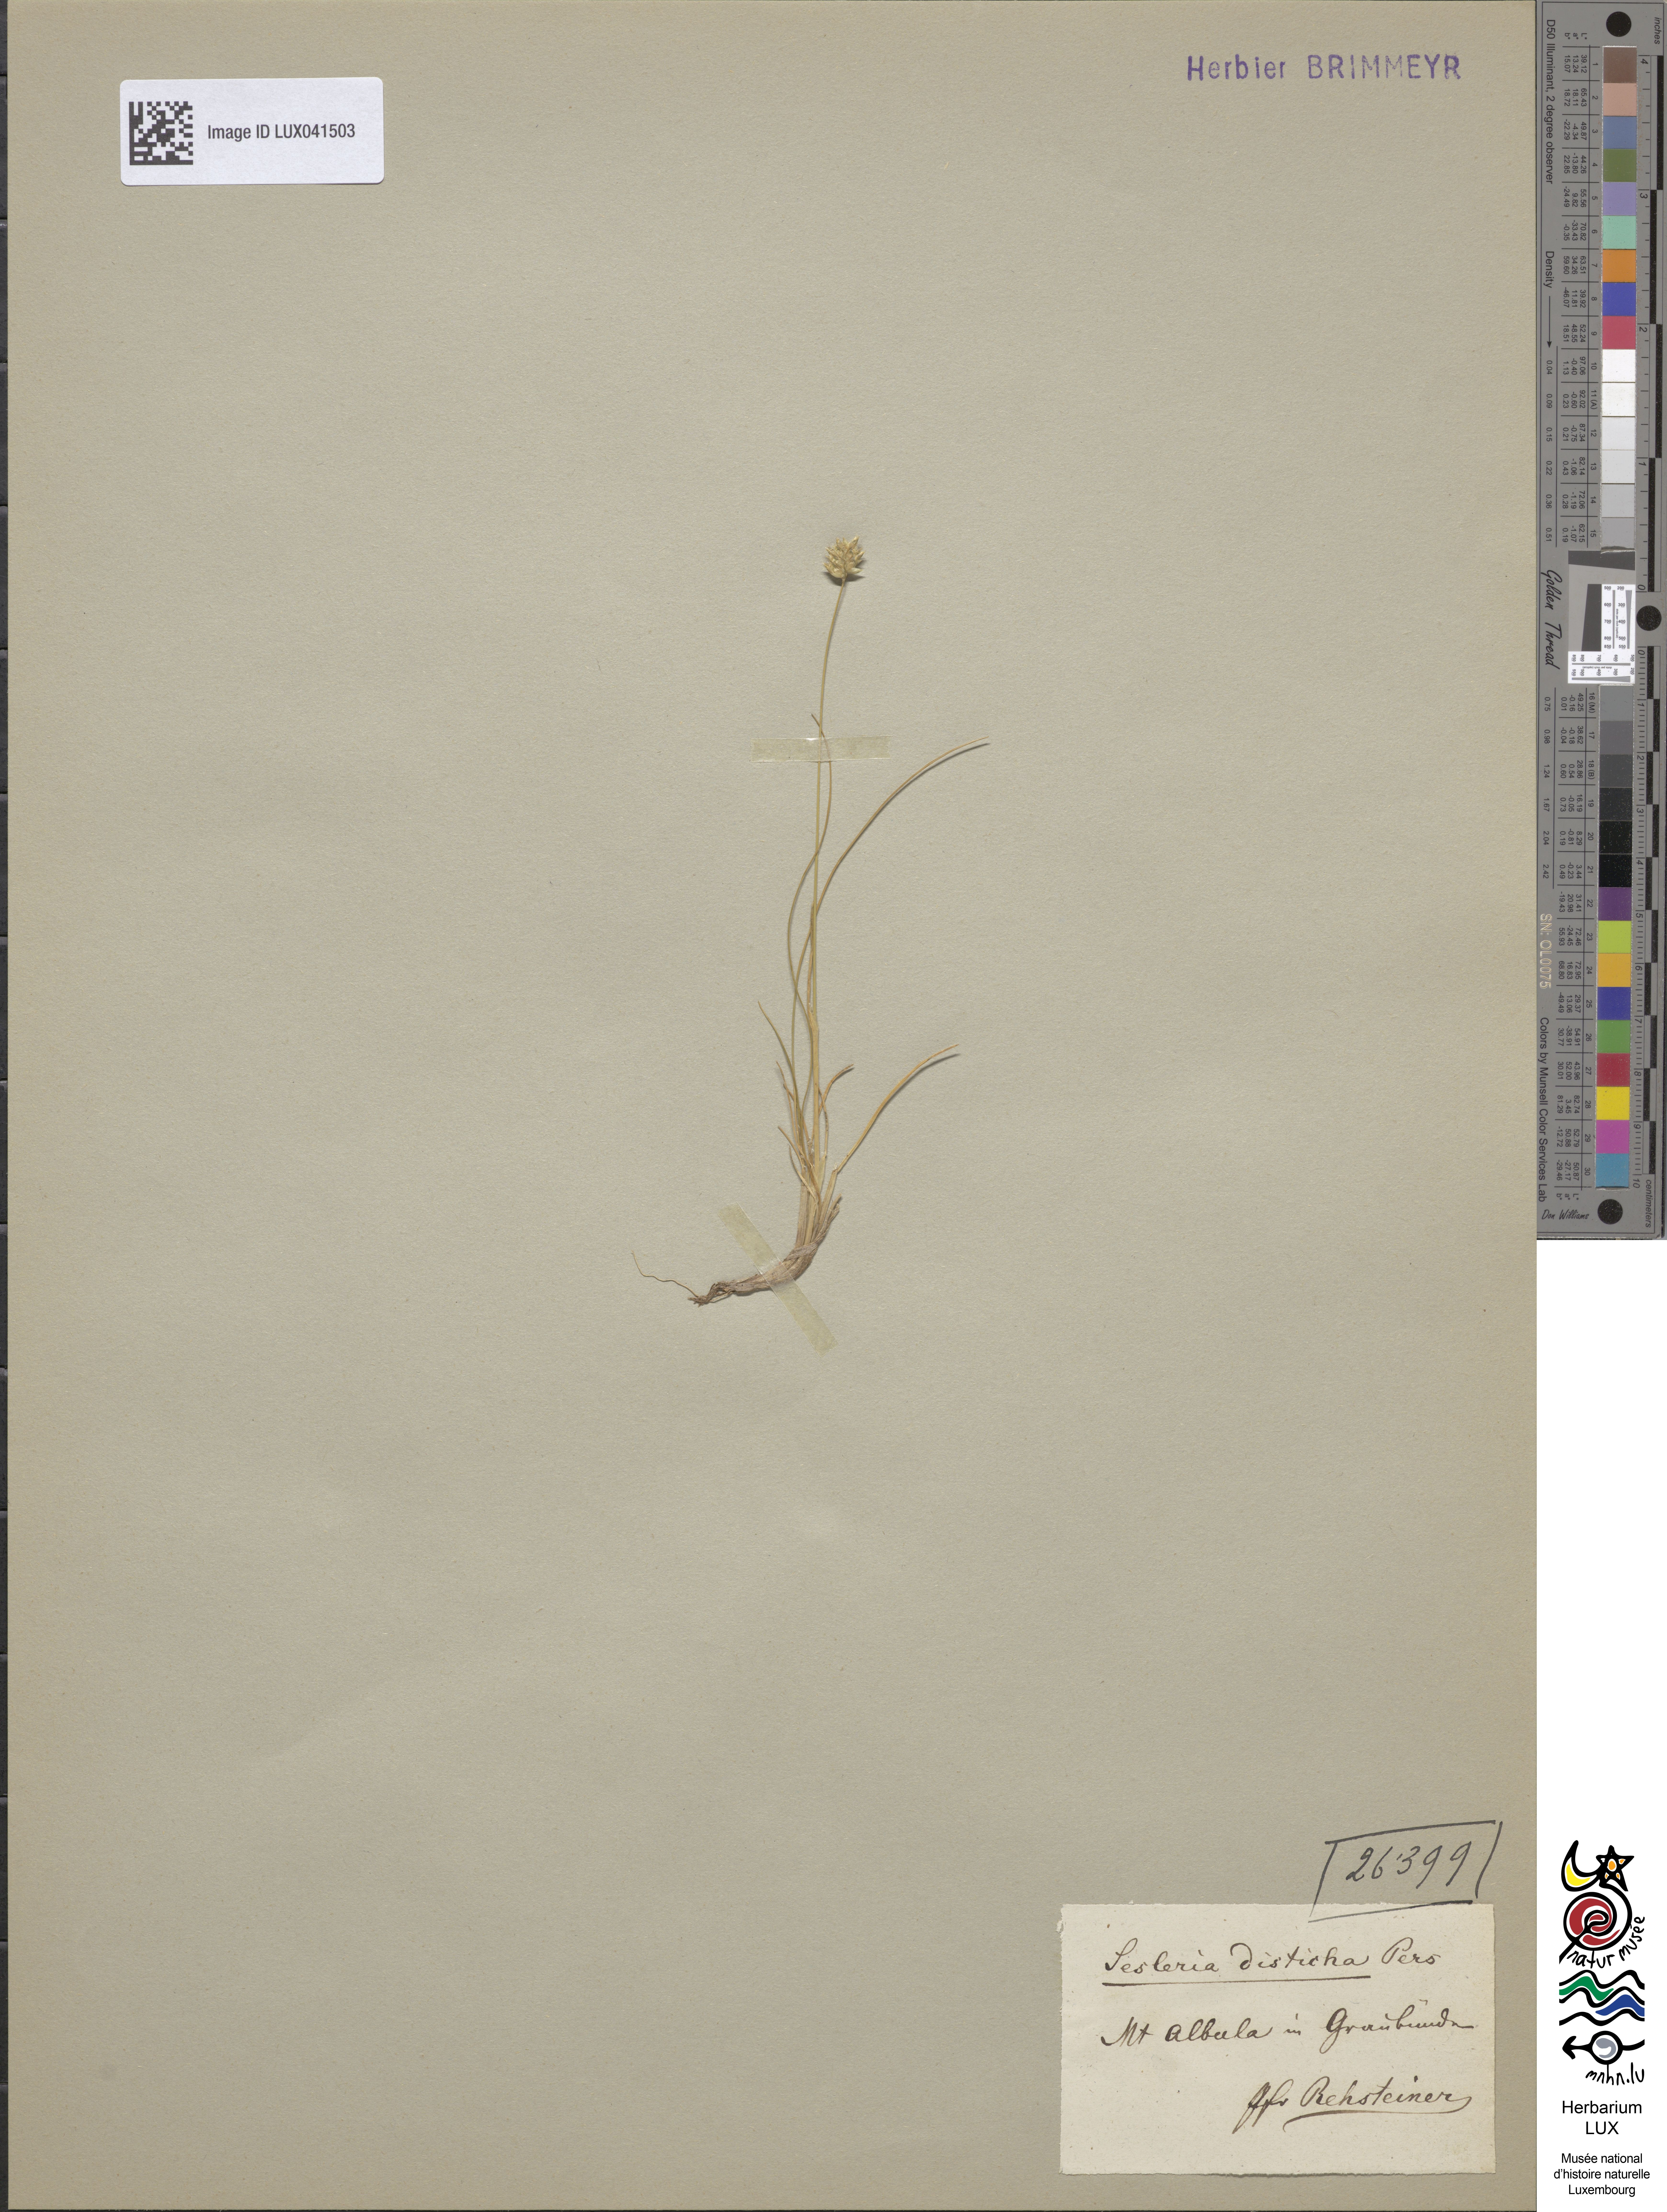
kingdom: Plantae
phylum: Tracheophyta
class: Liliopsida
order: Poales
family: Poaceae
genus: Oreochloa
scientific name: Oreochloa disticha
